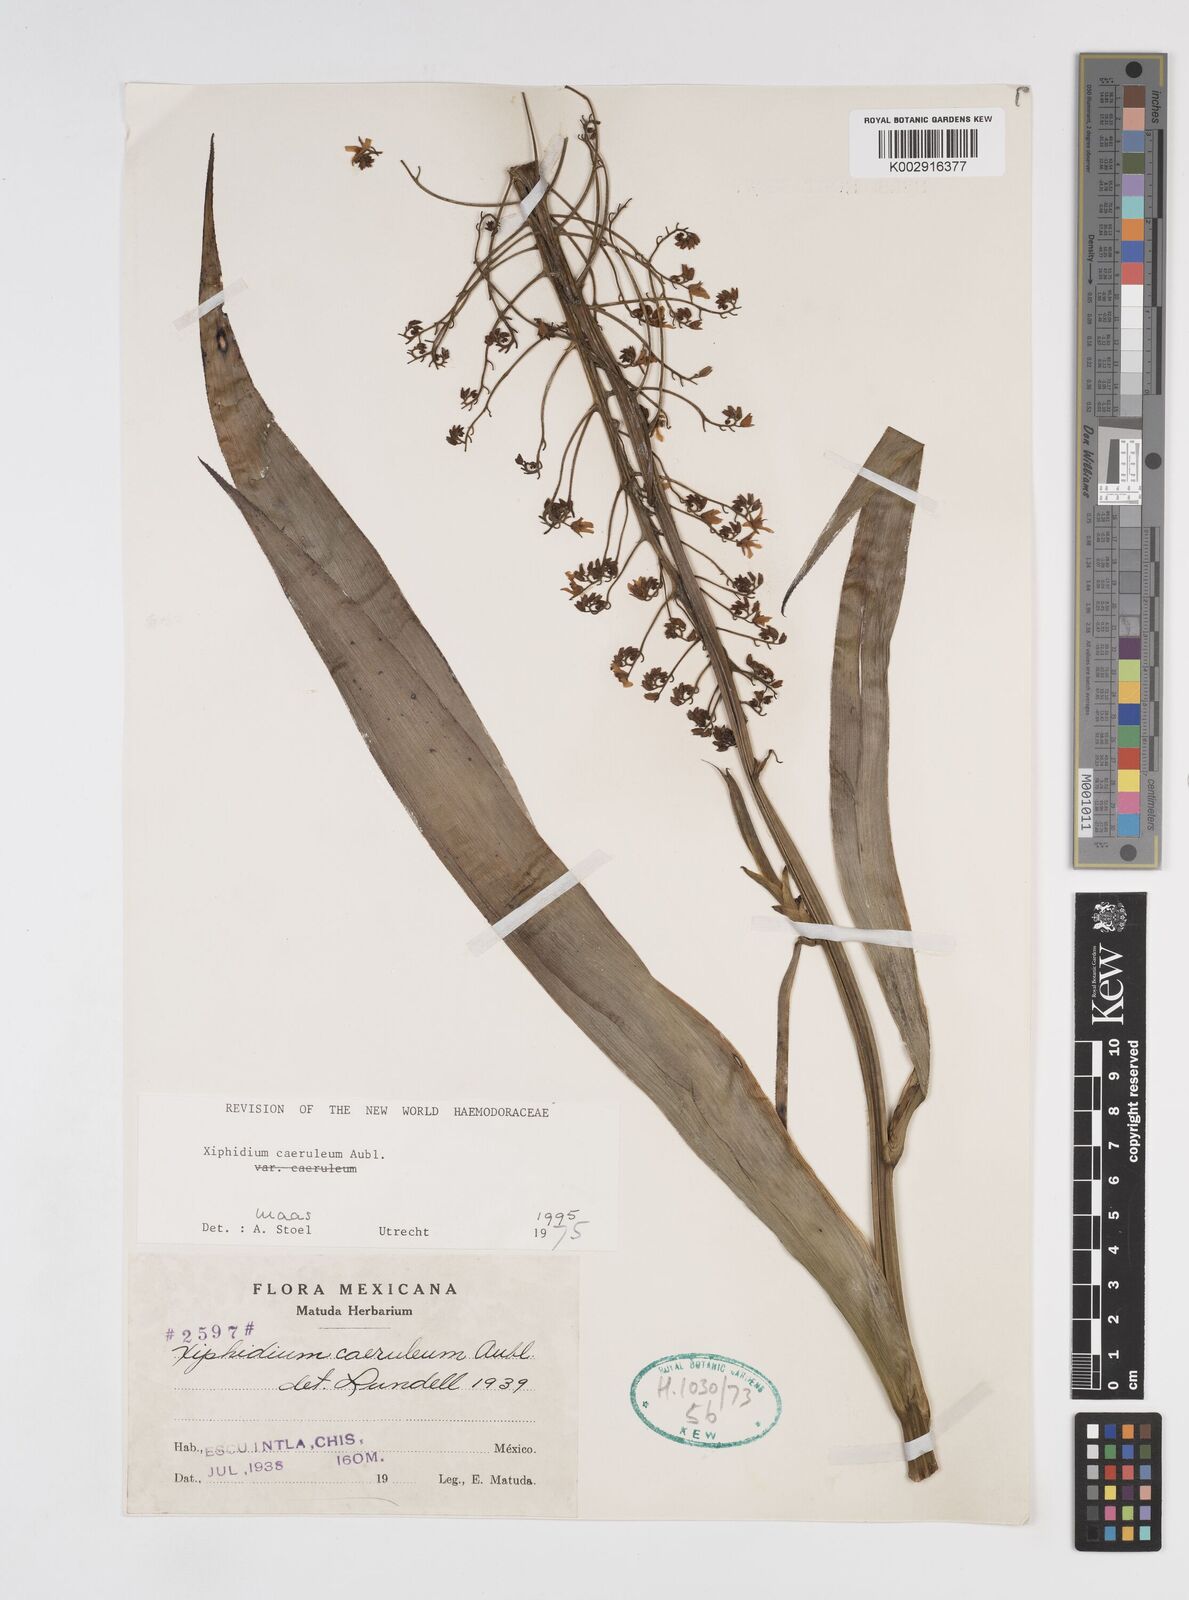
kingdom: Plantae
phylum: Tracheophyta
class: Liliopsida
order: Commelinales
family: Haemodoraceae
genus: Xiphidium
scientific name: Xiphidium caeruleum
